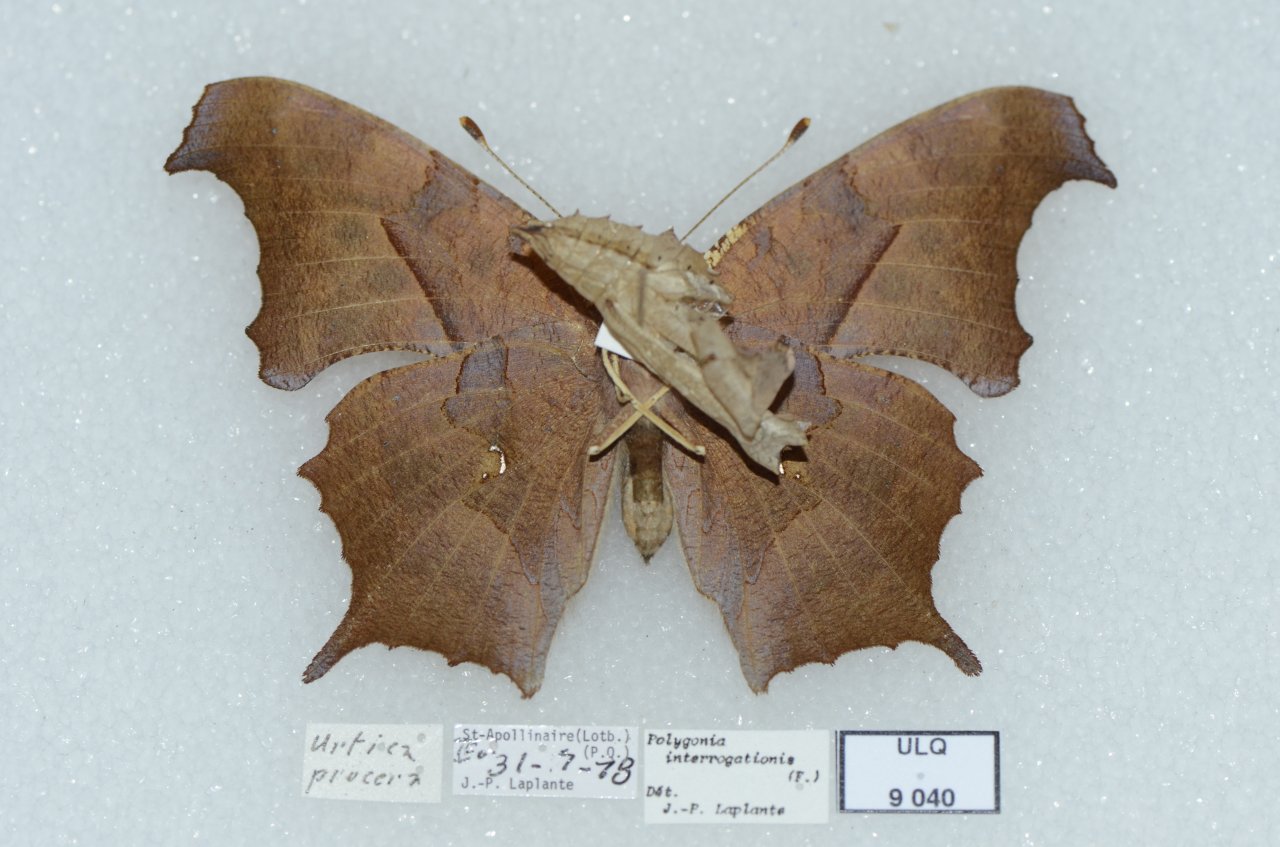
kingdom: Animalia
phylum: Arthropoda
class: Insecta
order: Lepidoptera
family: Nymphalidae
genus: Polygonia
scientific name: Polygonia interrogationis
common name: Question Mark
